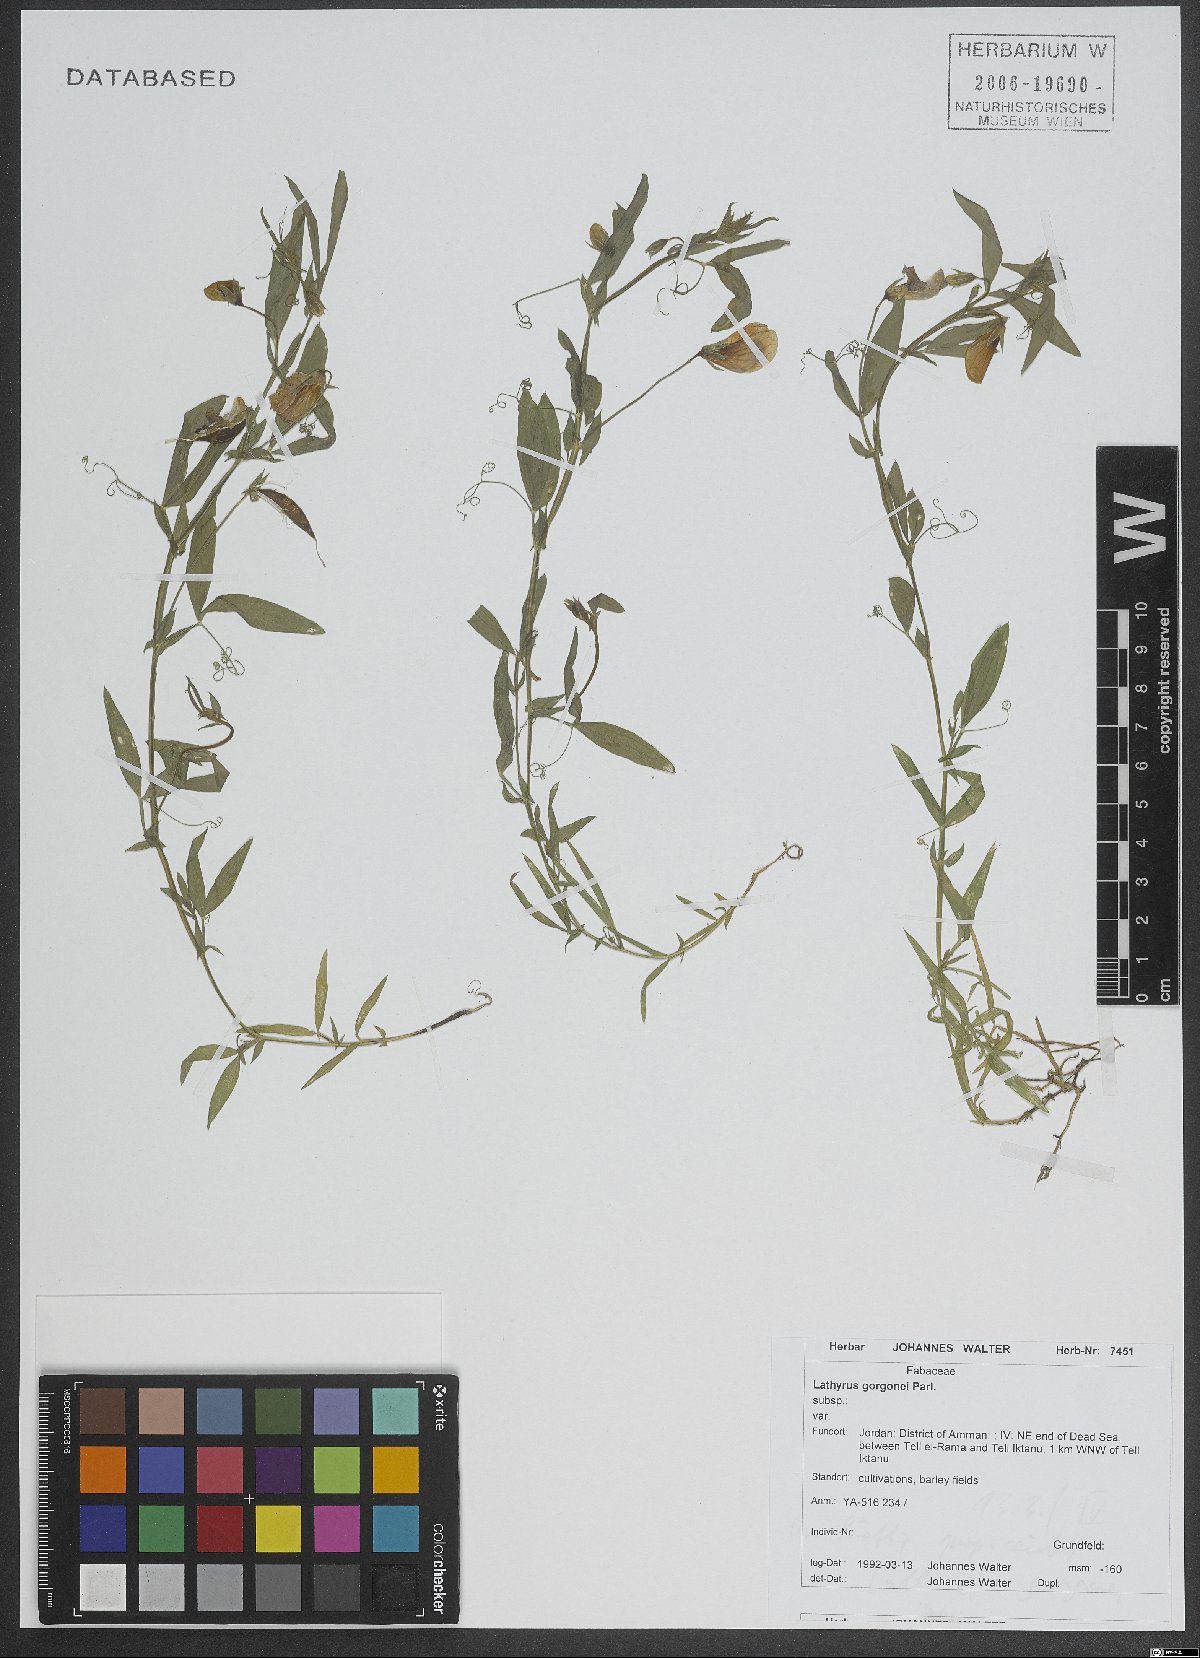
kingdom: Plantae
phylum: Tracheophyta
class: Magnoliopsida
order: Fabales
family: Fabaceae
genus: Lathyrus
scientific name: Lathyrus gorgoni
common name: Rare pea
